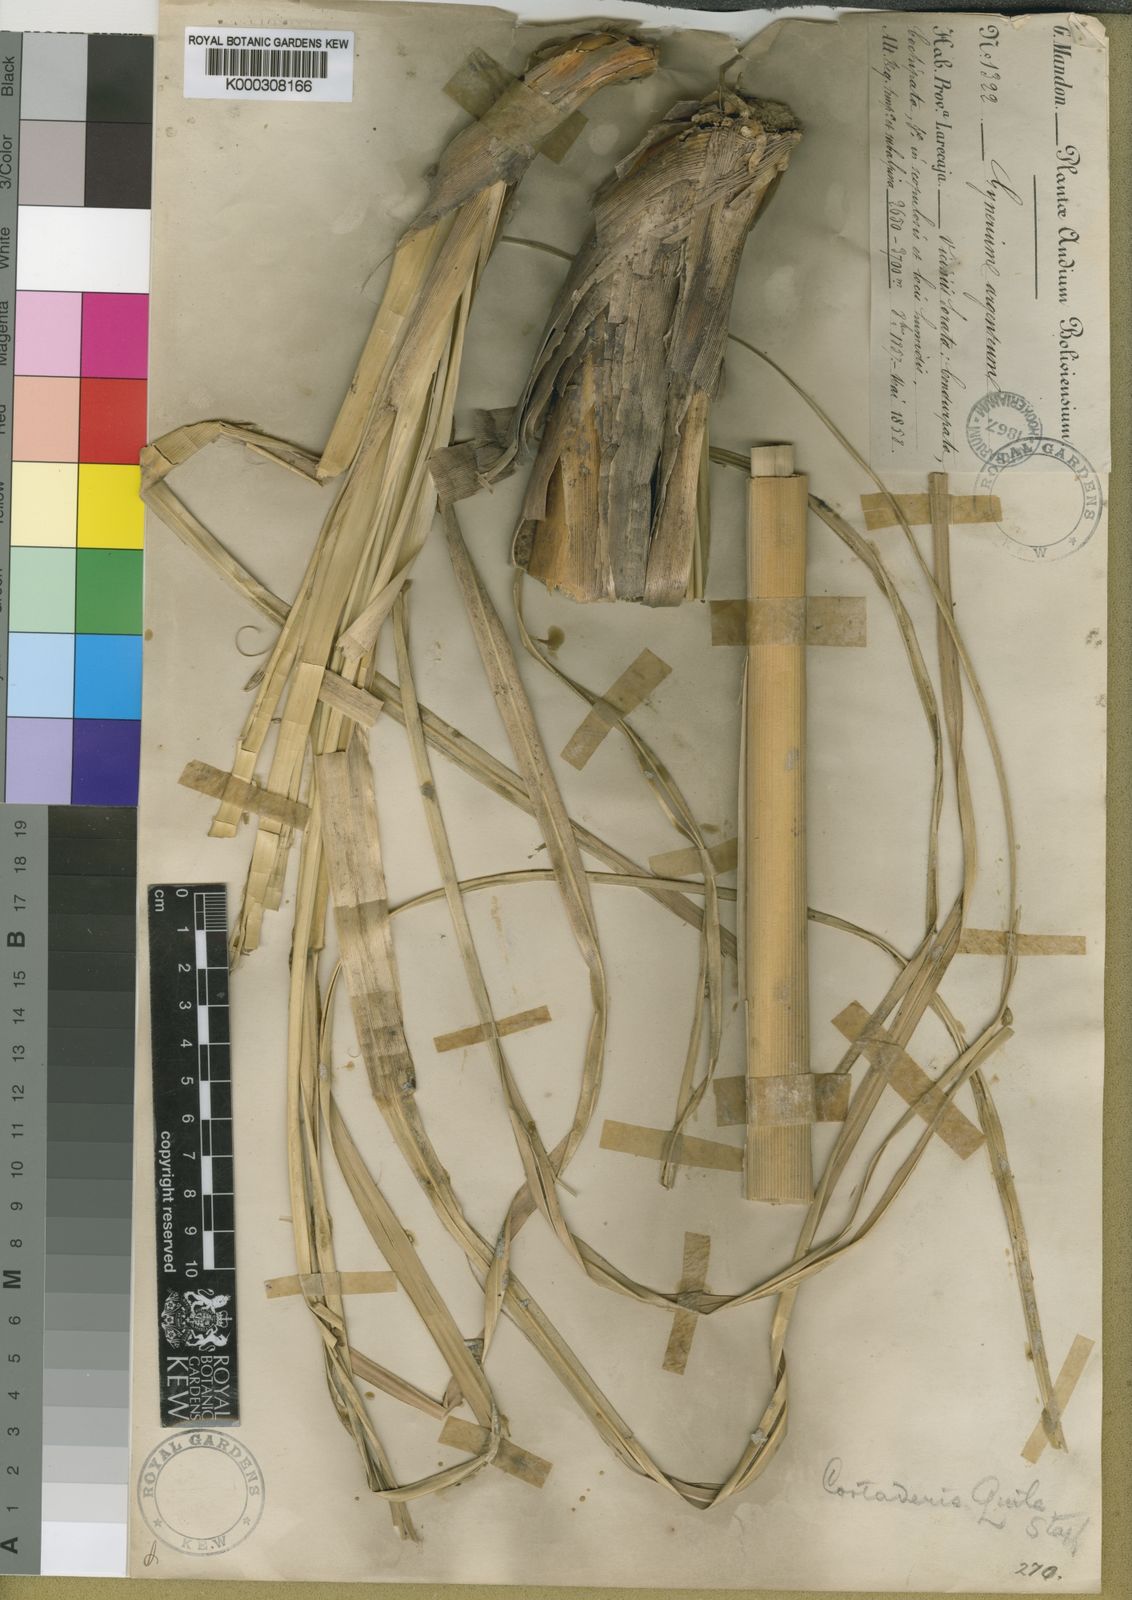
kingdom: Plantae
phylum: Tracheophyta
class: Liliopsida
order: Poales
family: Poaceae
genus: Cortaderia
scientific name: Cortaderia jubata
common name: Purple pampas grass
